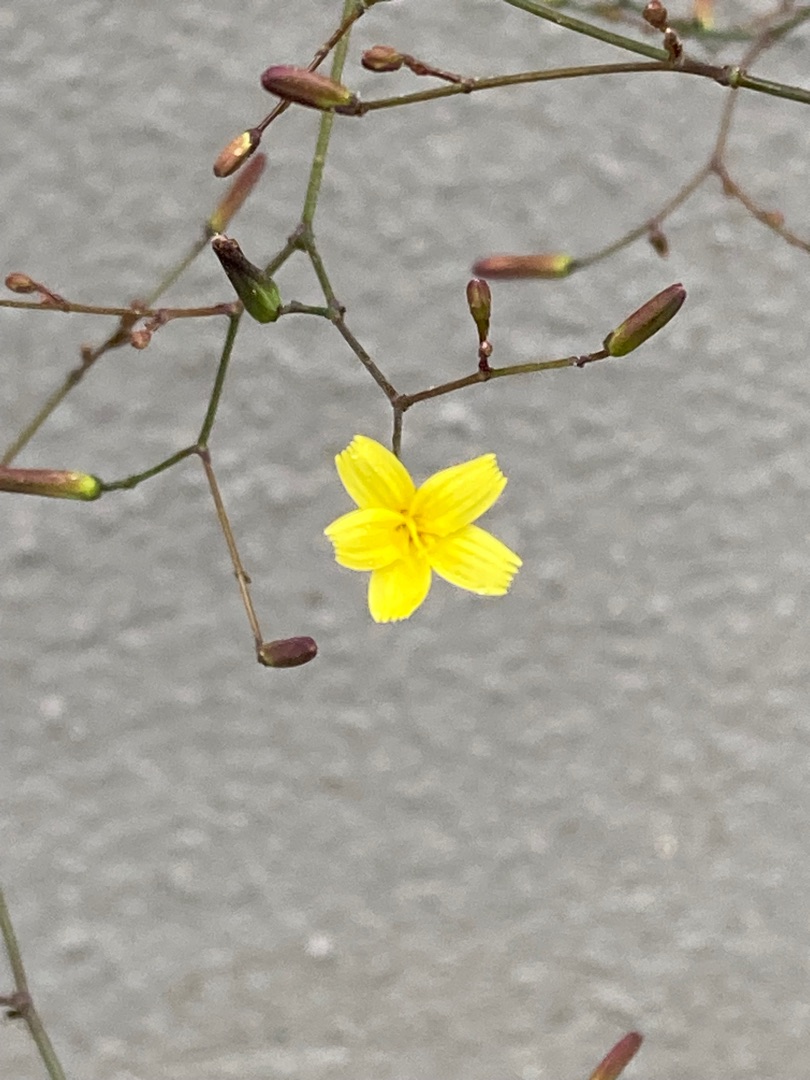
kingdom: Plantae
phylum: Tracheophyta
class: Magnoliopsida
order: Asterales
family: Asteraceae
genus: Mycelis
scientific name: Mycelis muralis
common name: Skov-salat
